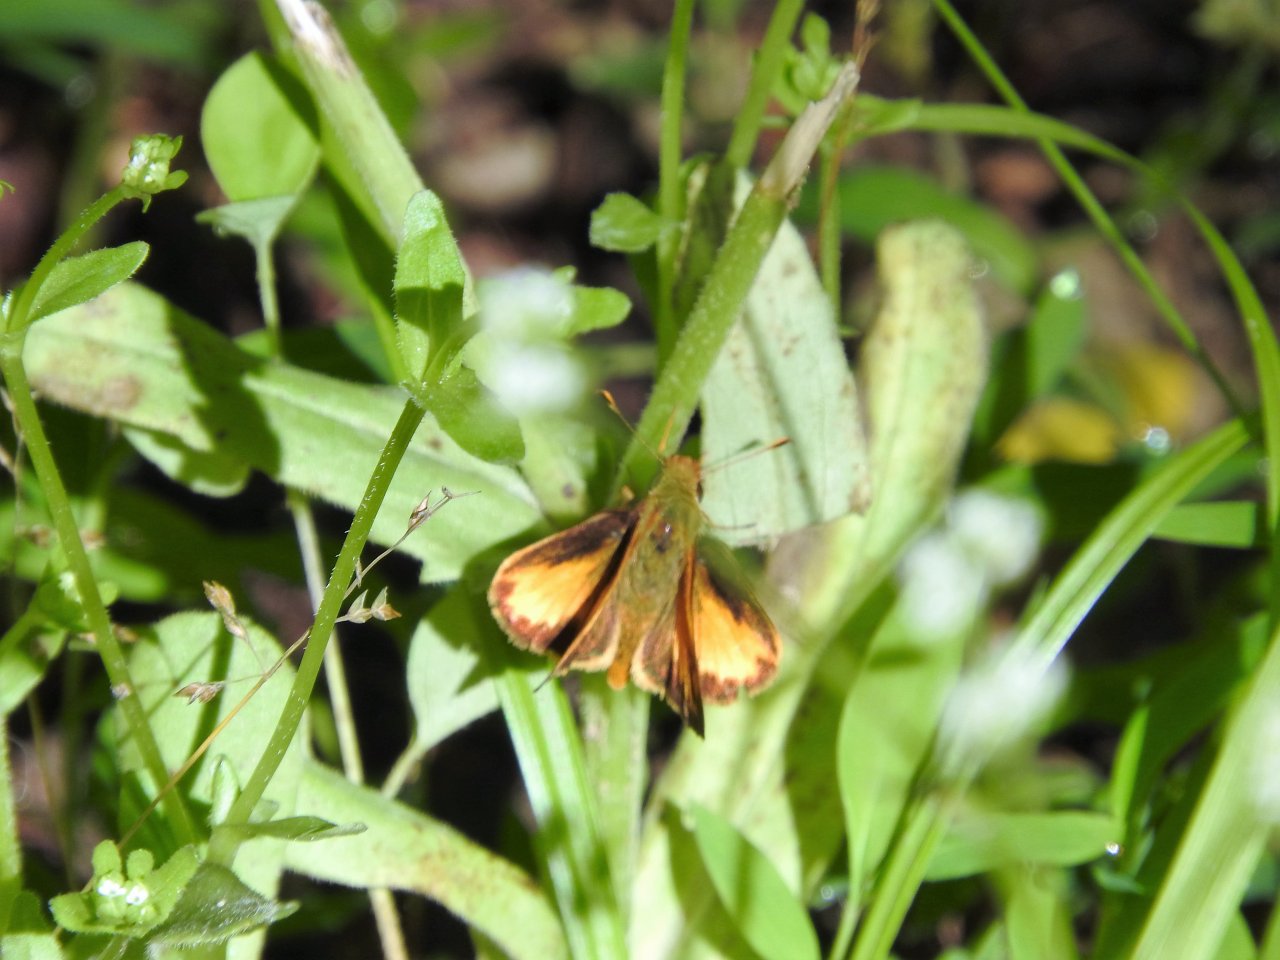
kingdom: Animalia
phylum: Arthropoda
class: Insecta
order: Lepidoptera
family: Hesperiidae
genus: Lon
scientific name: Lon zabulon
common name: Zabulon Skipper
